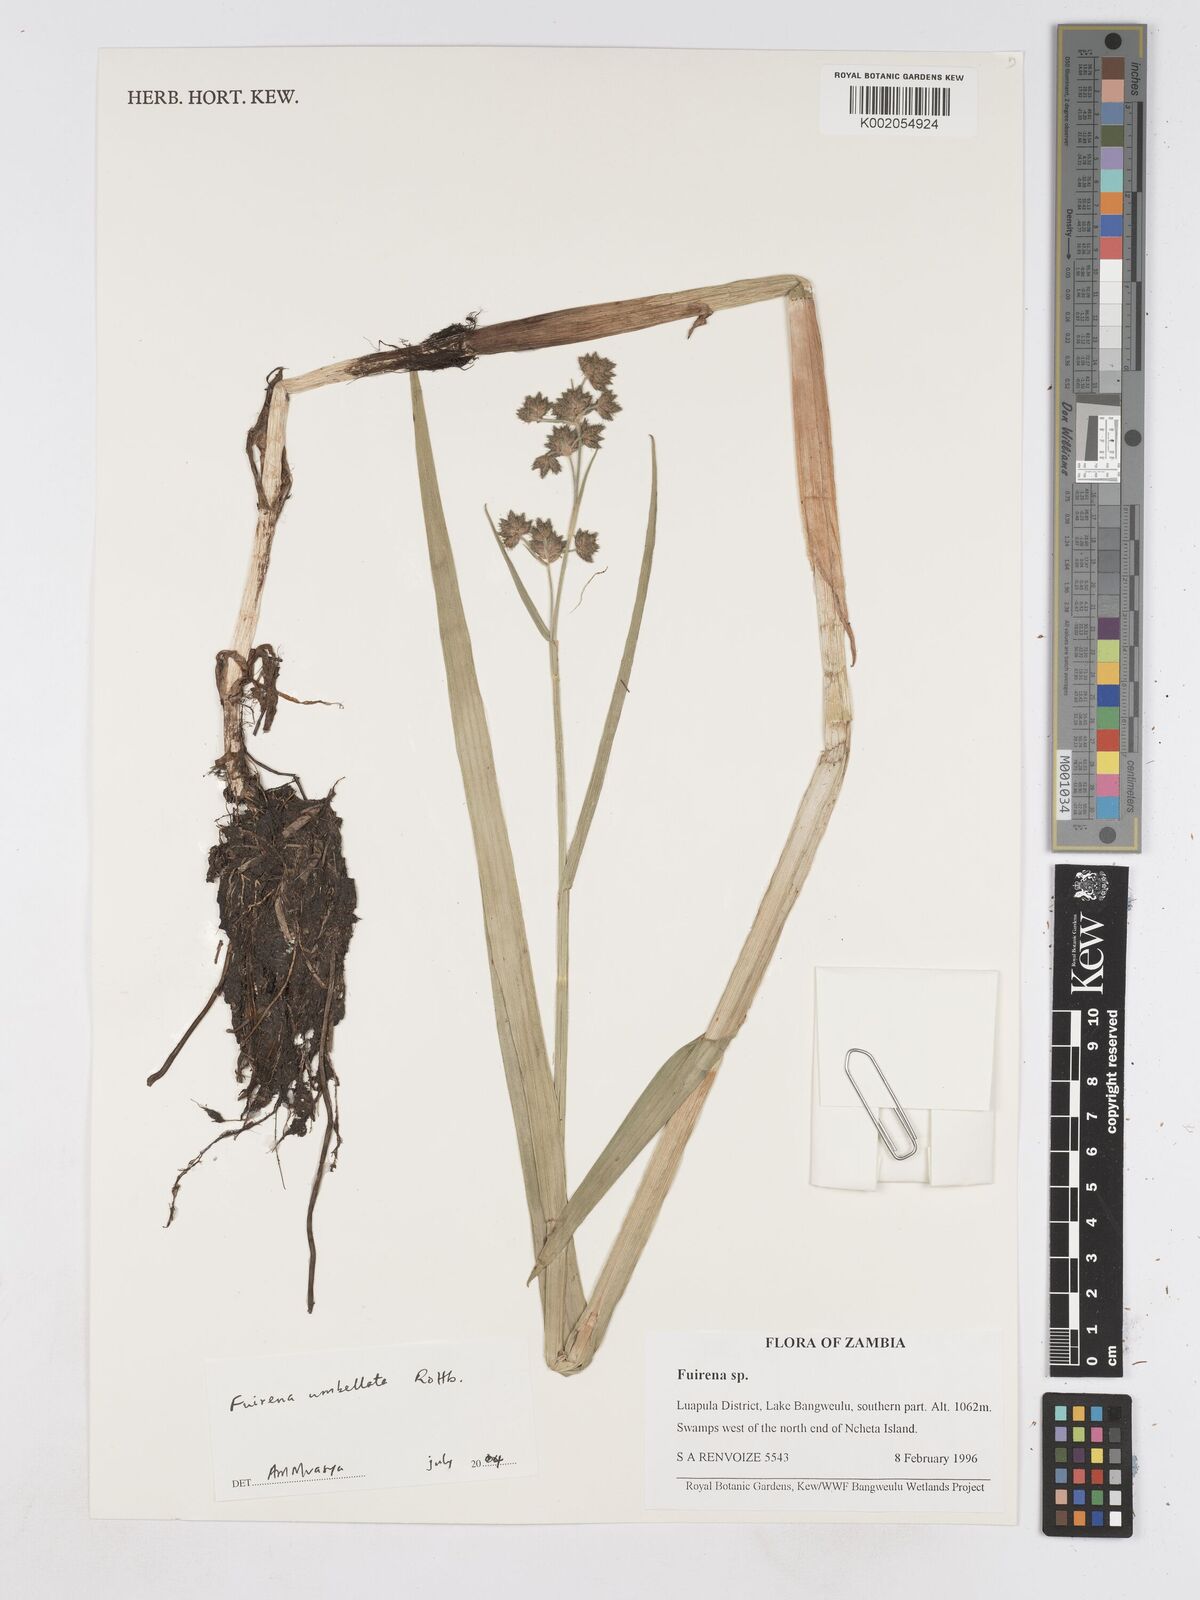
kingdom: Plantae
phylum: Tracheophyta
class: Liliopsida
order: Poales
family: Cyperaceae
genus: Fuirena
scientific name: Fuirena umbellata
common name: Yefen
